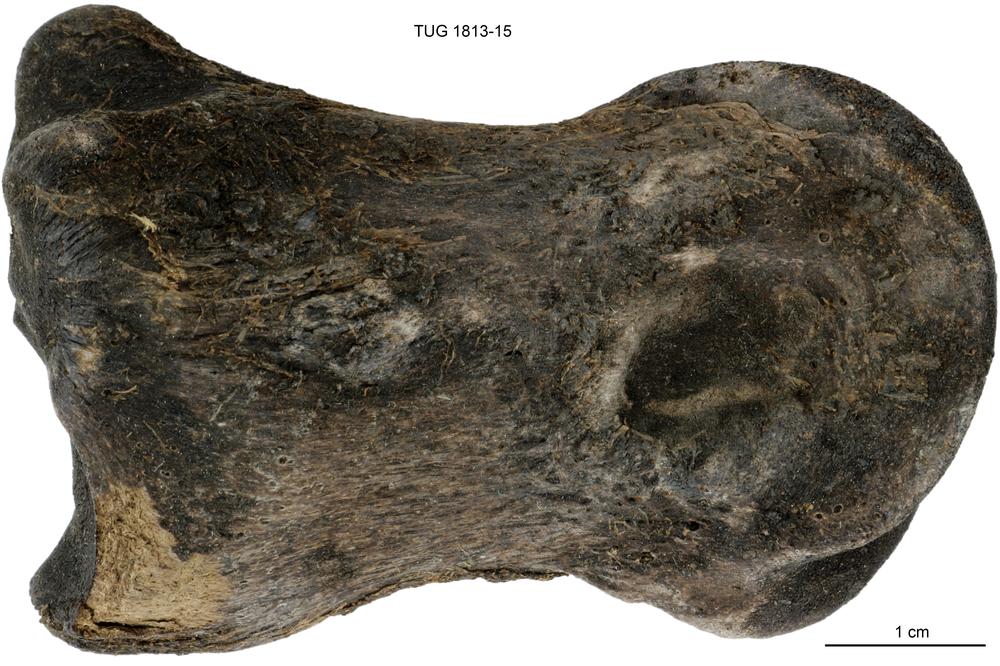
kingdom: Animalia
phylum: Chordata
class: Mammalia
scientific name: Mammalia
